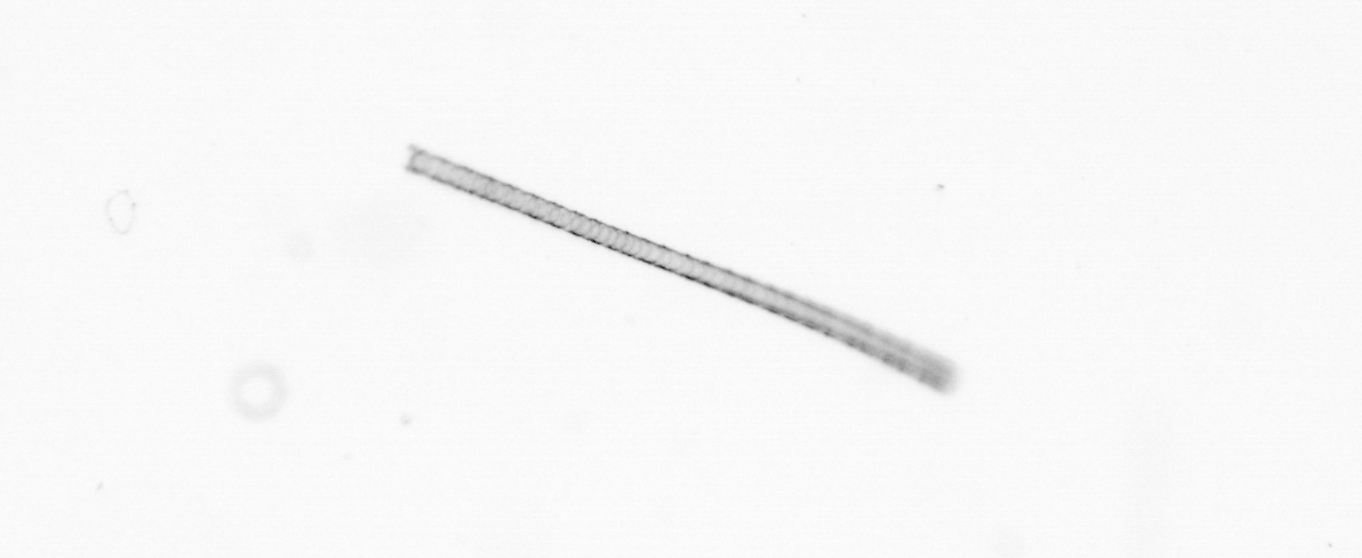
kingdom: Chromista
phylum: Ochrophyta
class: Bacillariophyceae
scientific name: Bacillariophyceae
